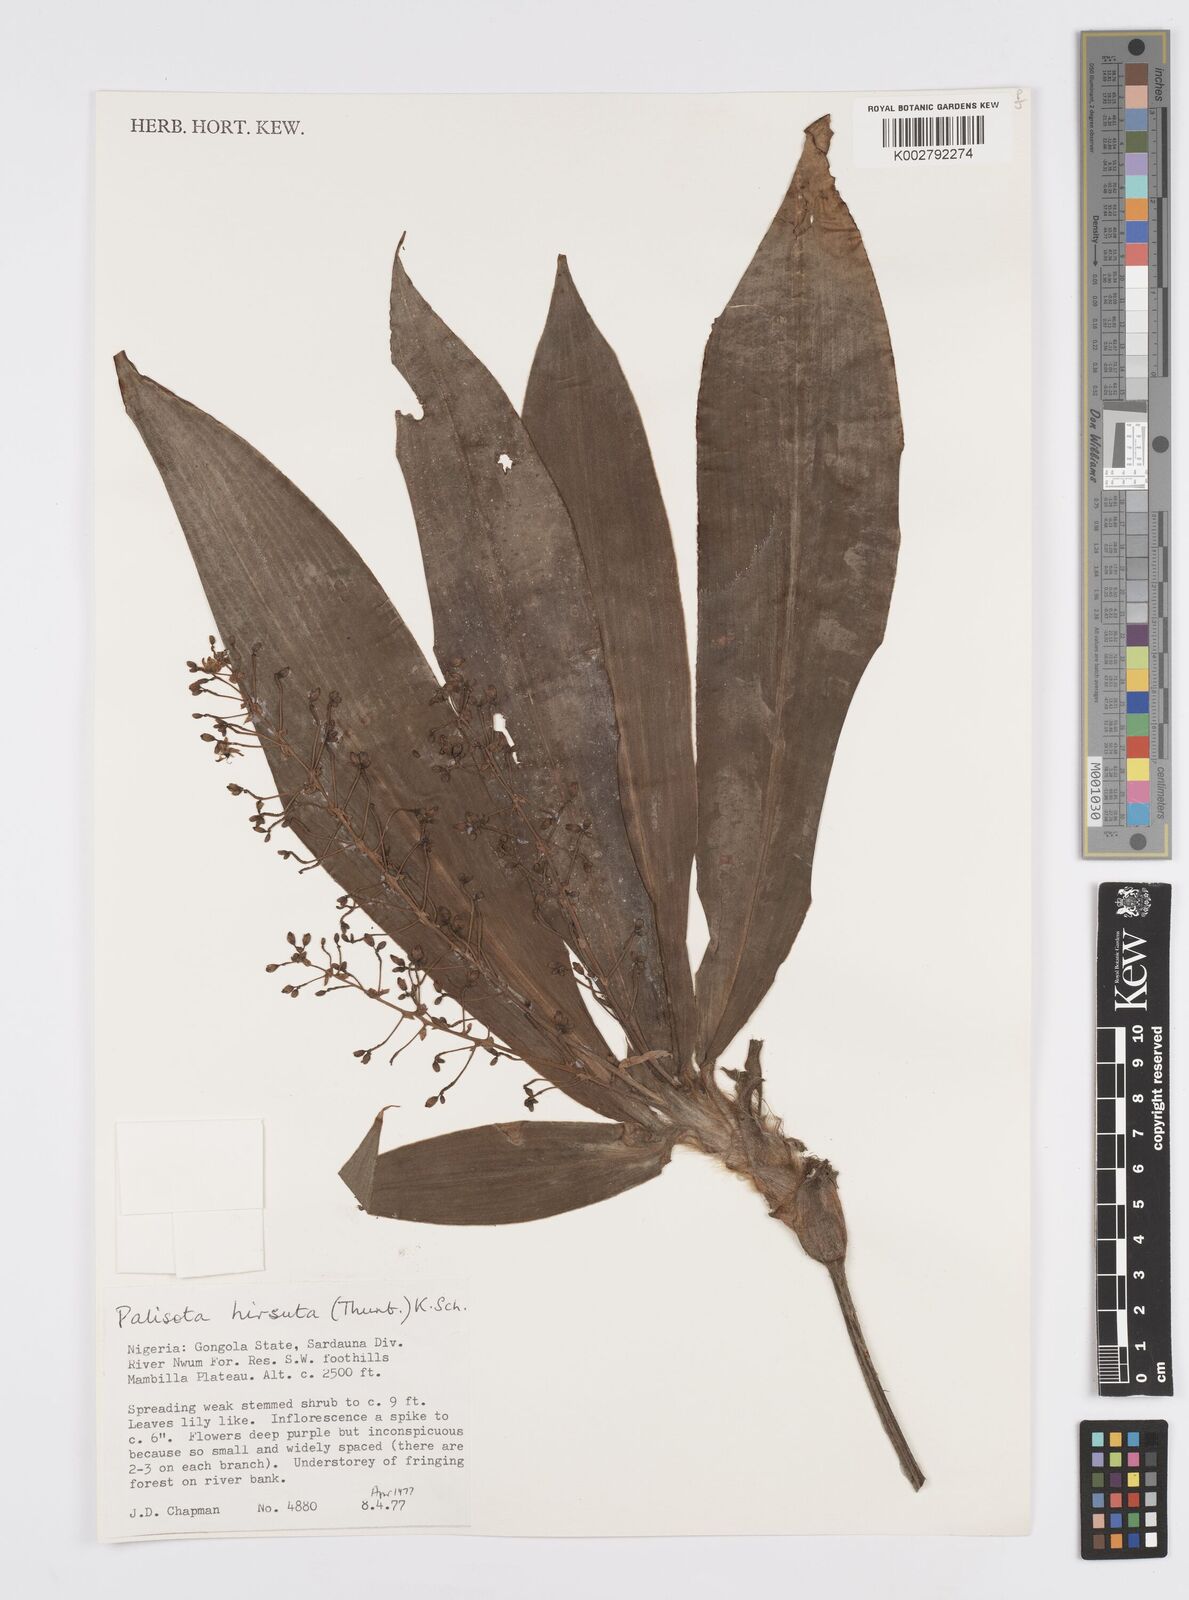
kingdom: Plantae
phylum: Tracheophyta
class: Liliopsida
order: Commelinales
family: Commelinaceae
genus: Palisota
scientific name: Palisota hirsuta
